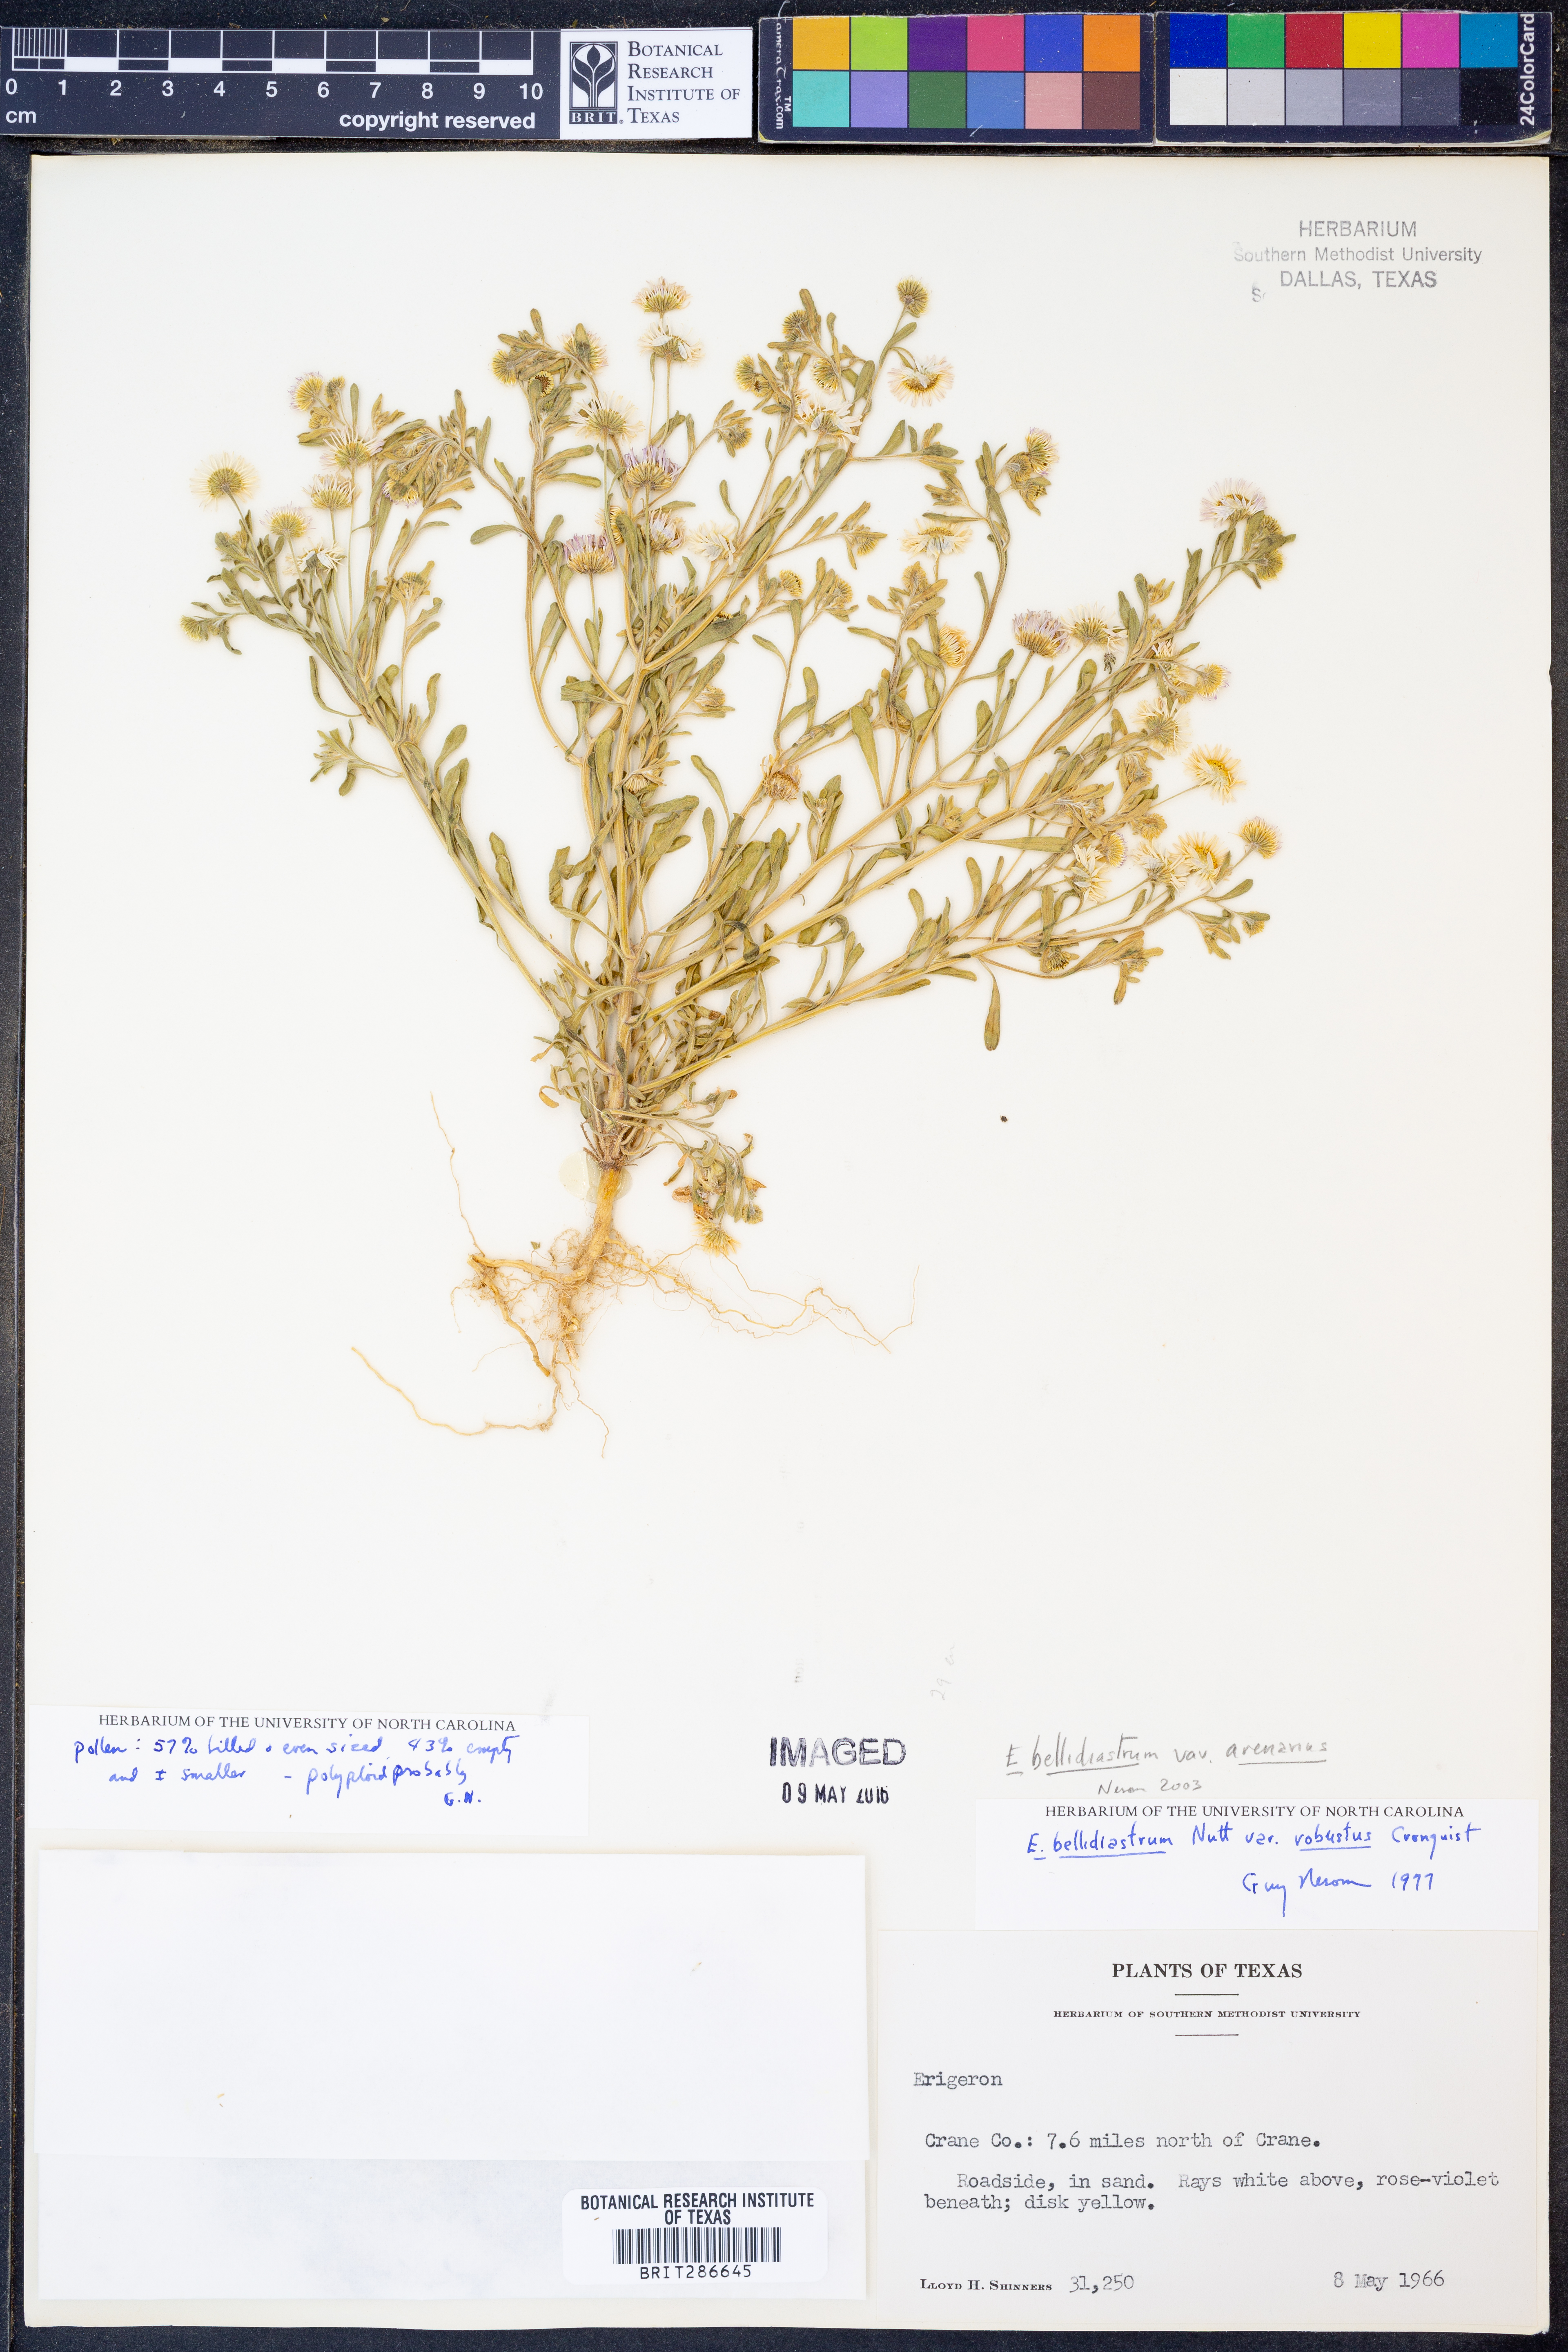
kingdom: Plantae
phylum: Tracheophyta
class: Magnoliopsida
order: Asterales
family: Asteraceae
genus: Erigeron
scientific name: Erigeron bellidiastrum
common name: Sand fleabane
